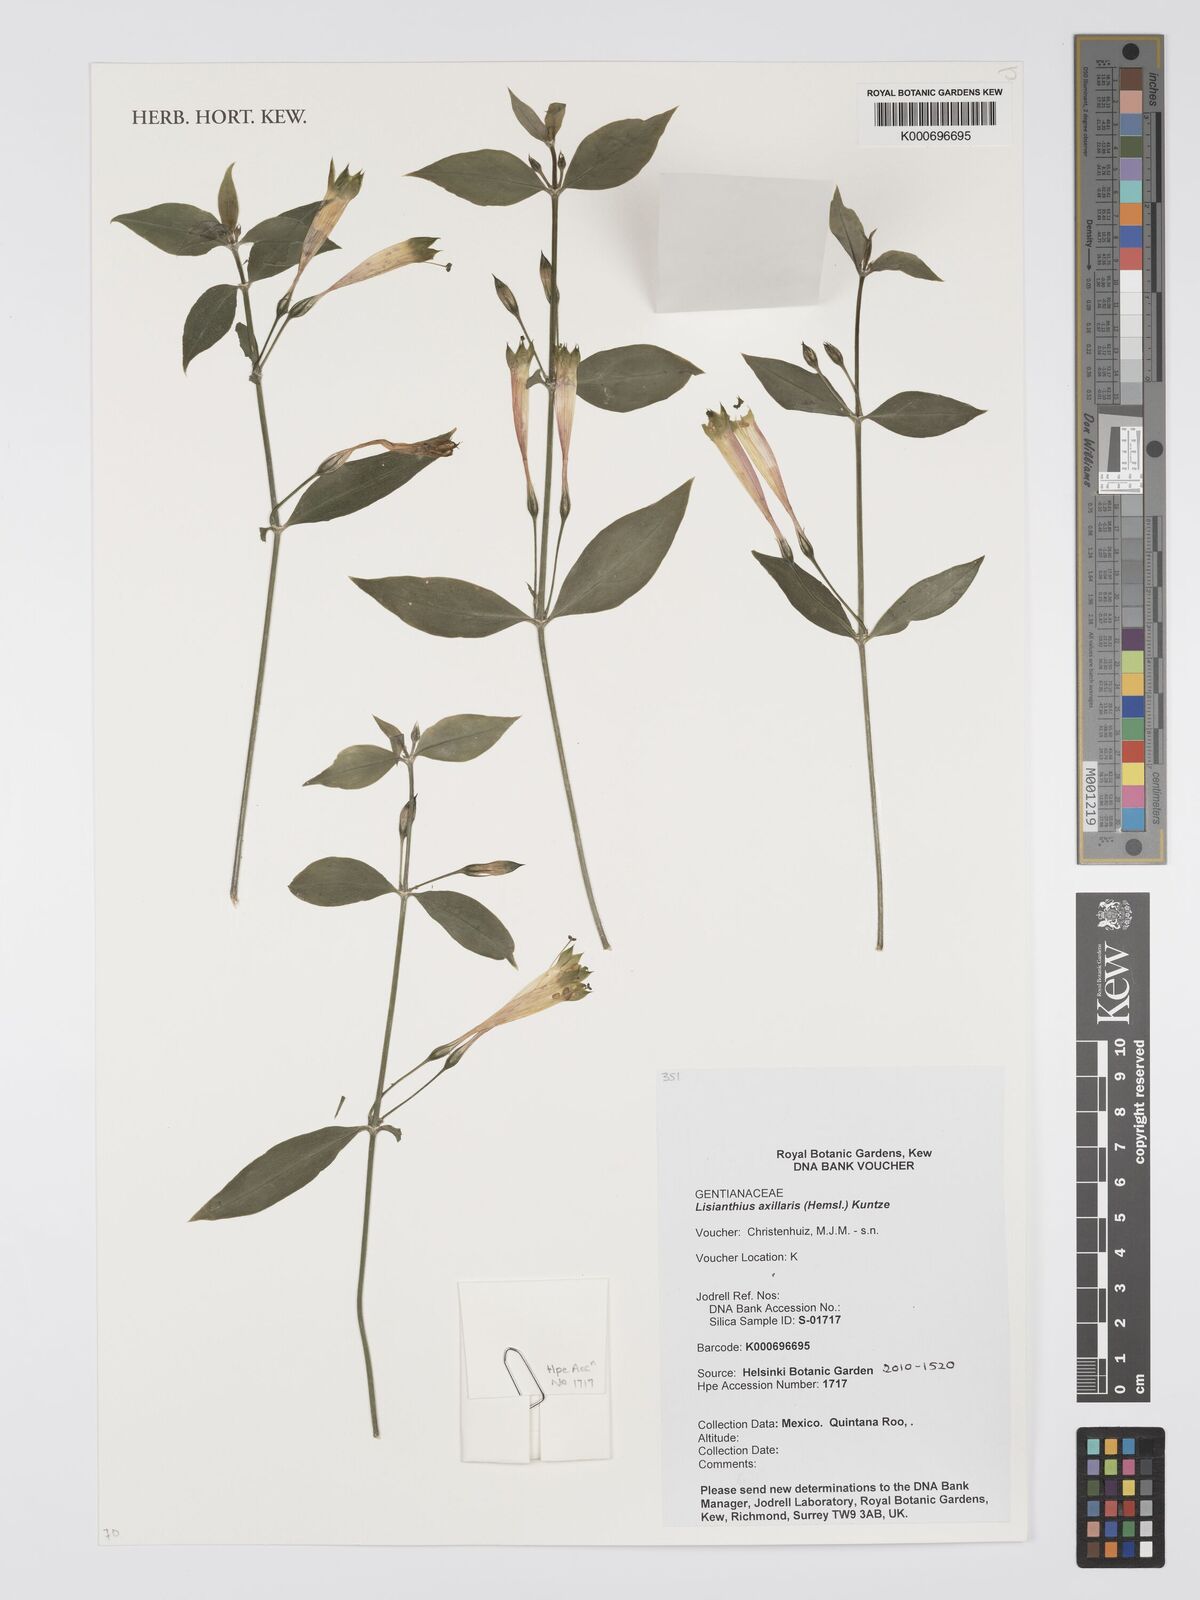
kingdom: Plantae
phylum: Tracheophyta
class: Magnoliopsida
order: Gentianales
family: Gentianaceae
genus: Lisianthus
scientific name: Lisianthus axillaris
